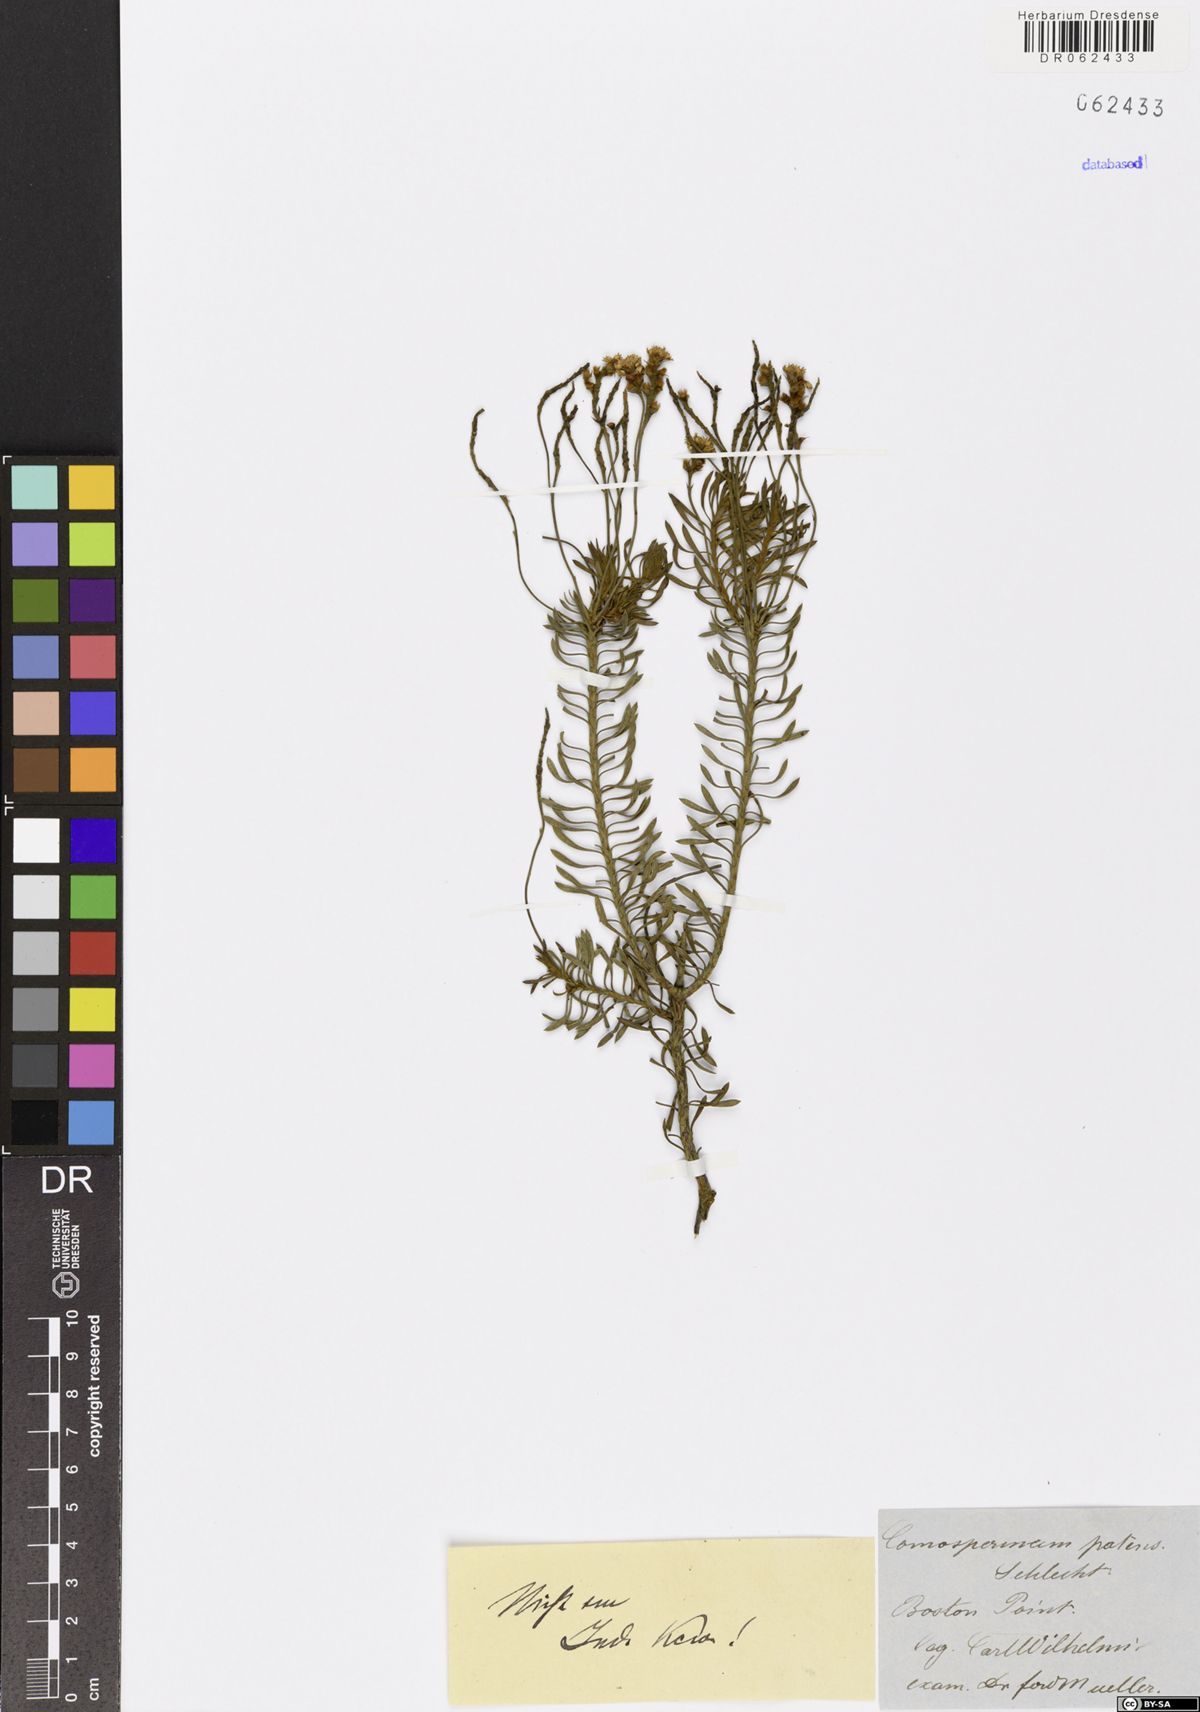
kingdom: Plantae
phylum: Tracheophyta
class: Magnoliopsida
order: Proteales
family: Proteaceae
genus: Conospermum
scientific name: Conospermum patens
